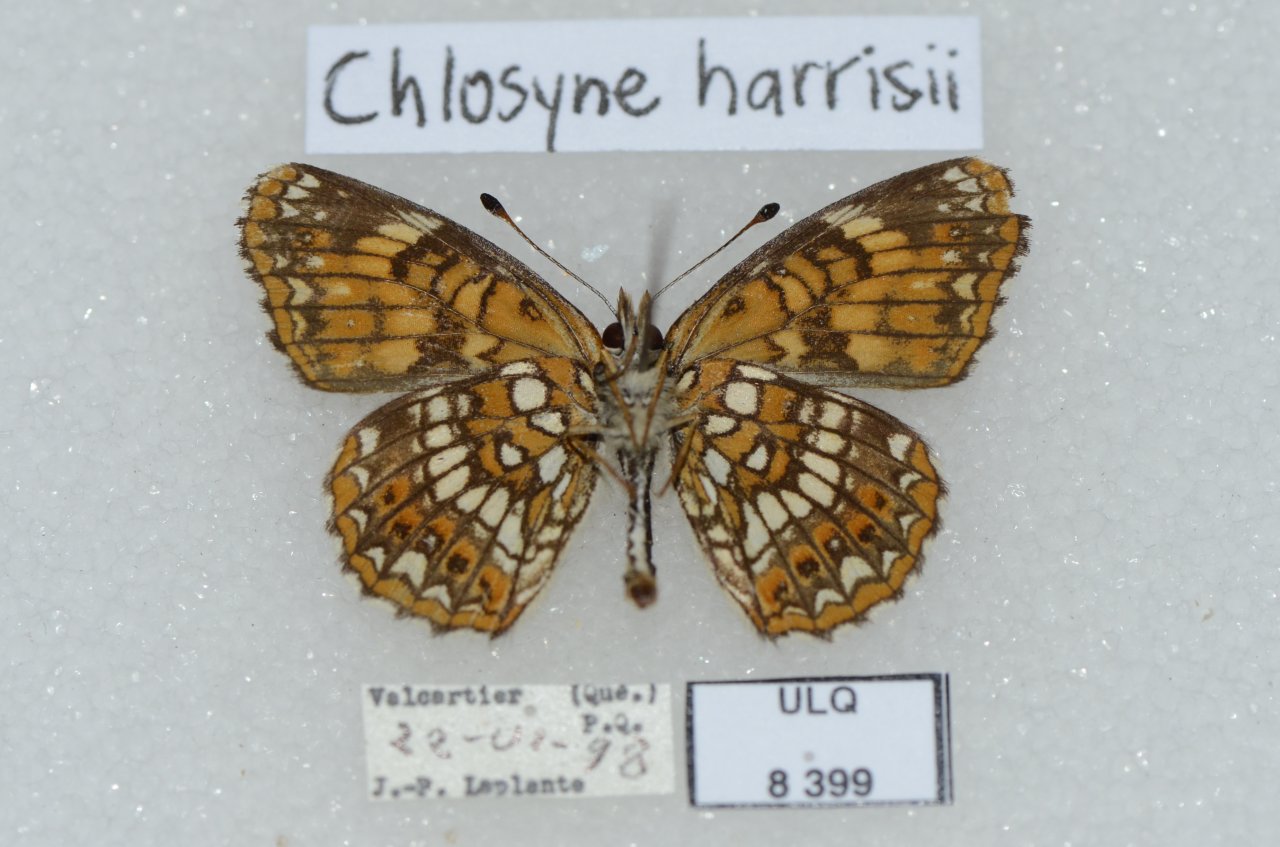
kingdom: Animalia
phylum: Arthropoda
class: Insecta
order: Lepidoptera
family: Nymphalidae
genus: Chlosyne
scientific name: Chlosyne harrisii
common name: Harris's Checkerspot
